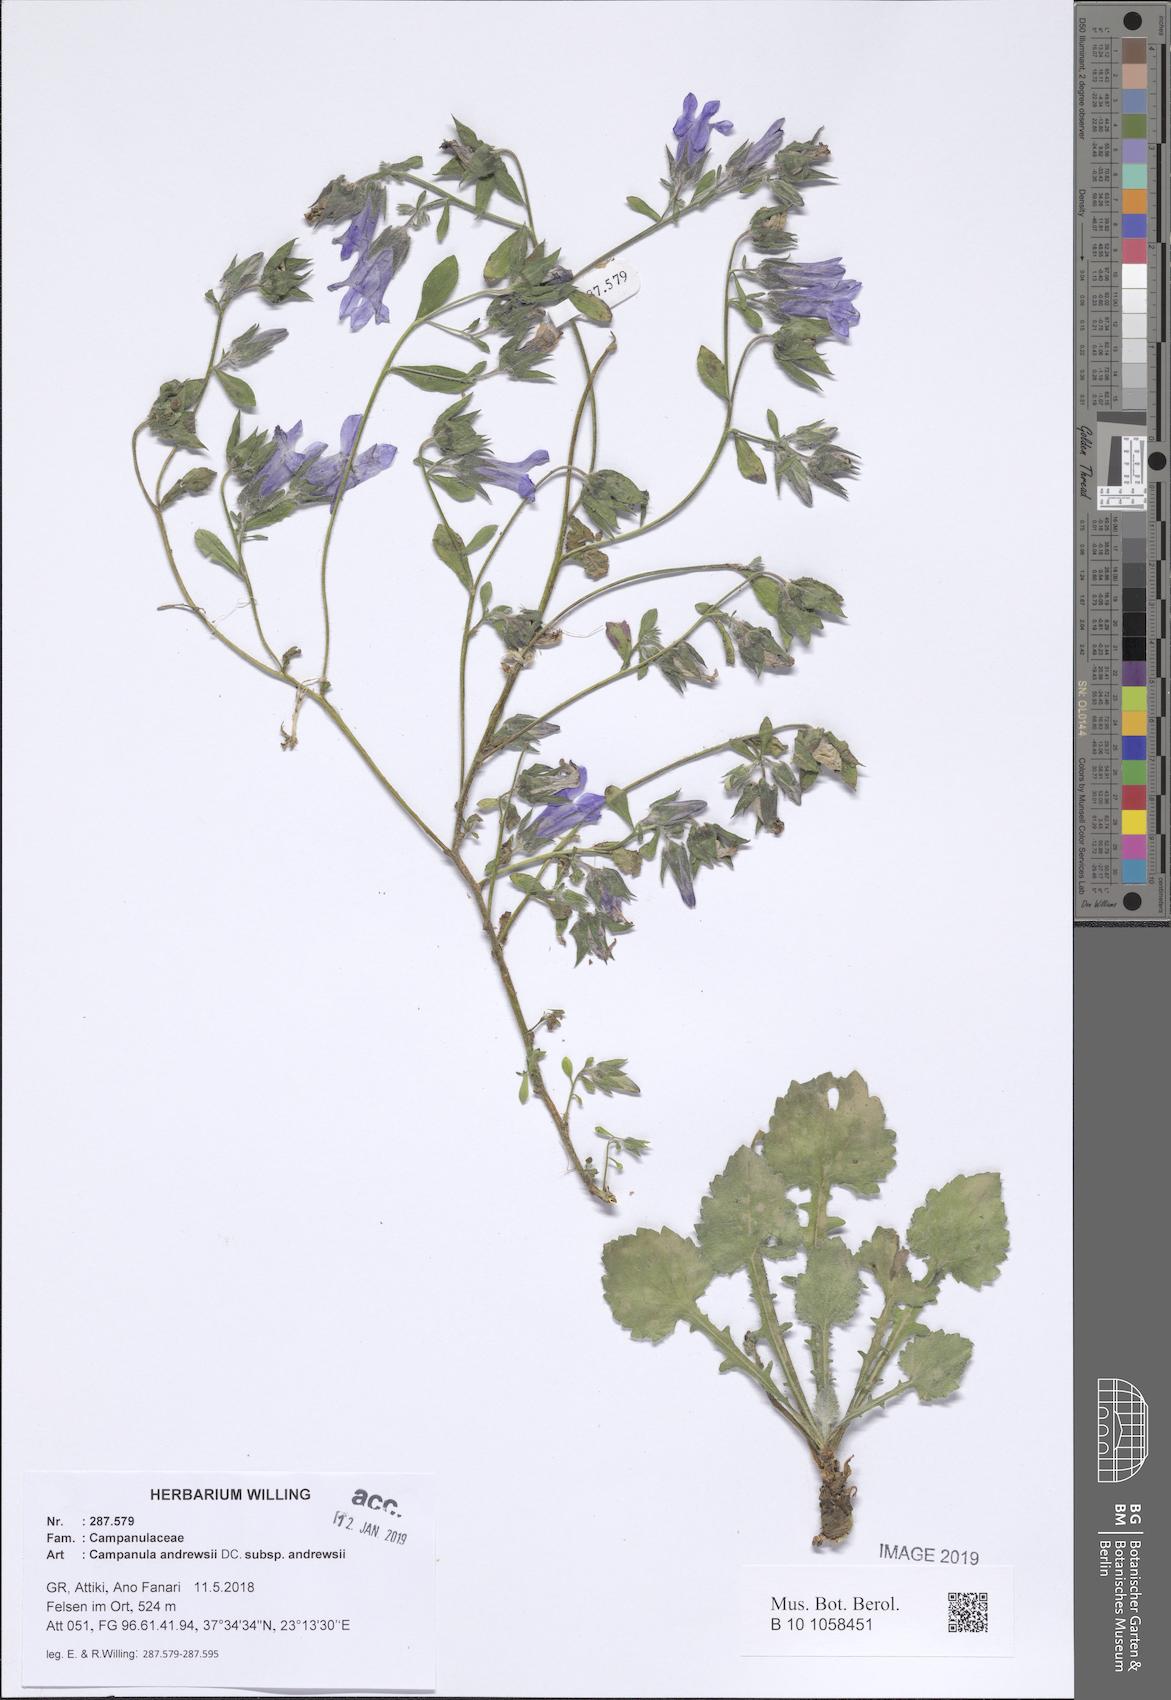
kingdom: Plantae
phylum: Tracheophyta
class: Magnoliopsida
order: Asterales
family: Campanulaceae
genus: Campanula
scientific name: Campanula andrewsii
